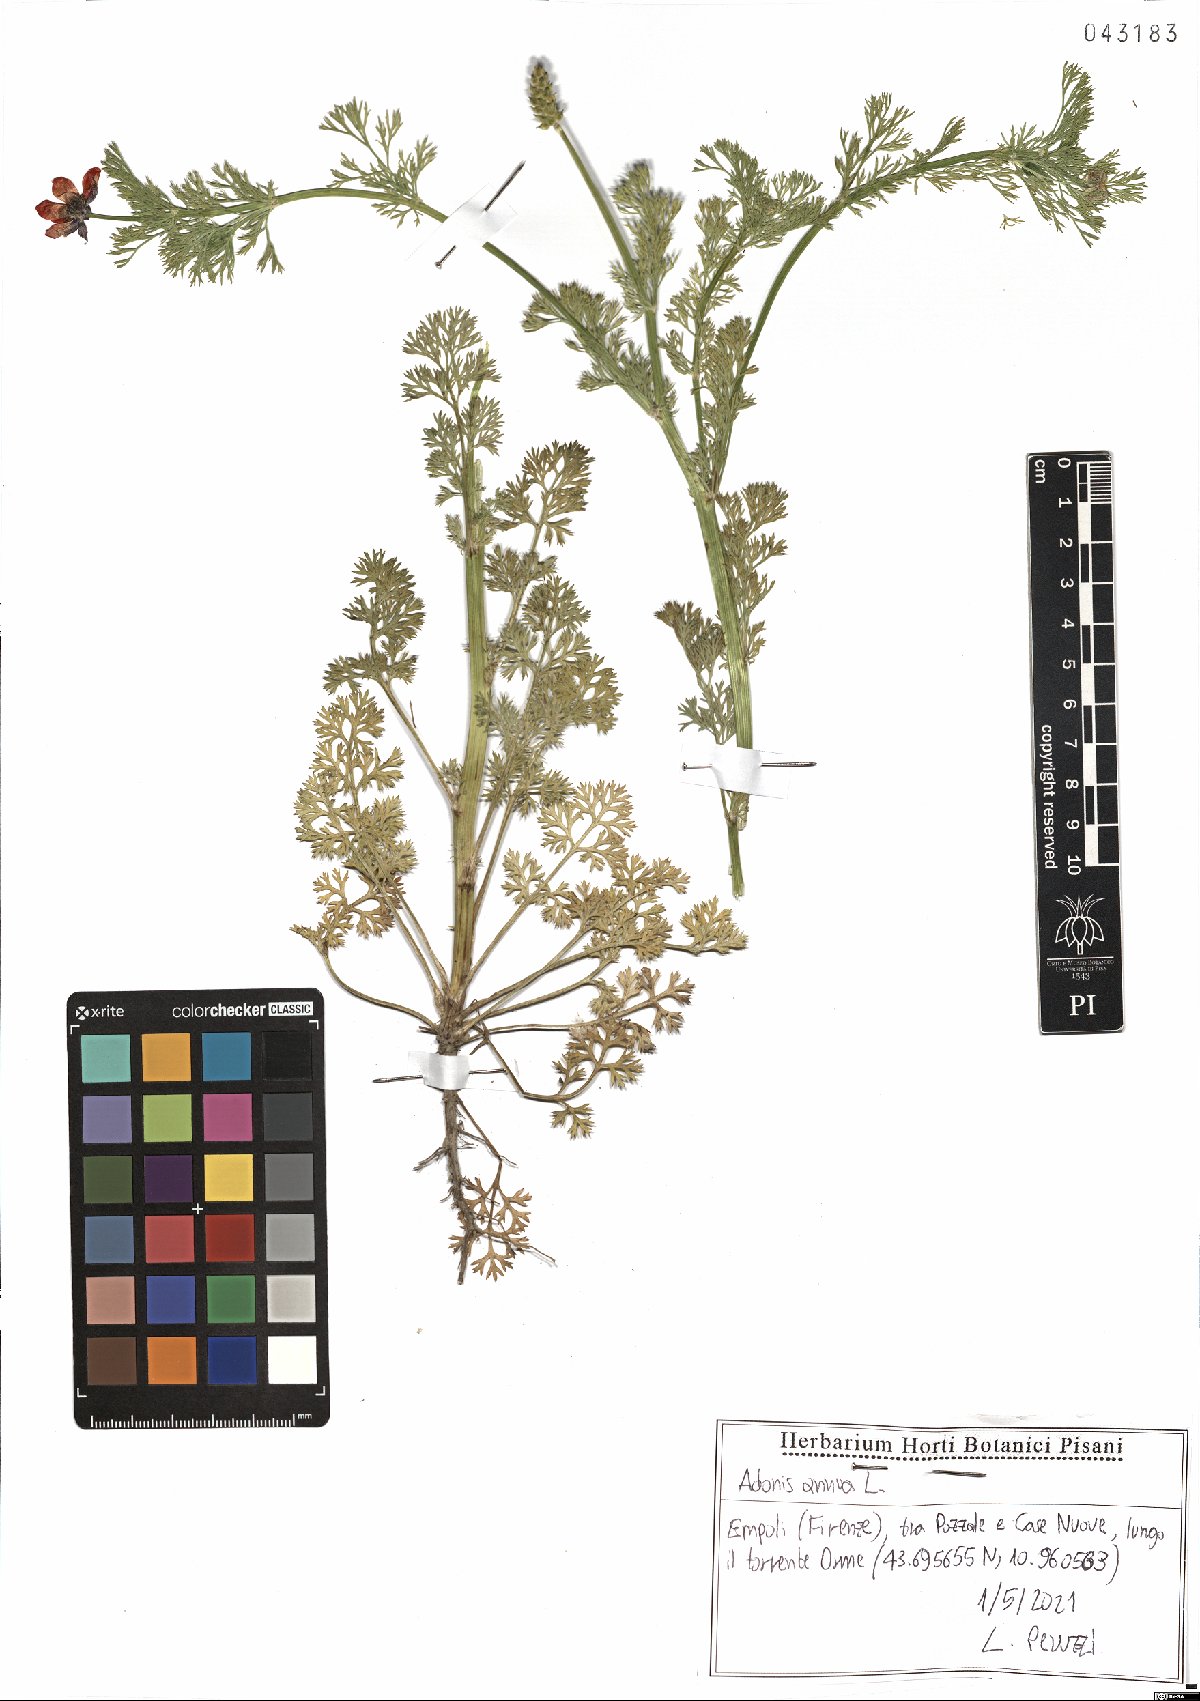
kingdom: Plantae
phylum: Tracheophyta
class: Magnoliopsida
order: Ranunculales
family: Ranunculaceae
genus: Adonis
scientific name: Adonis annua
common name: Pheasant's-eye
